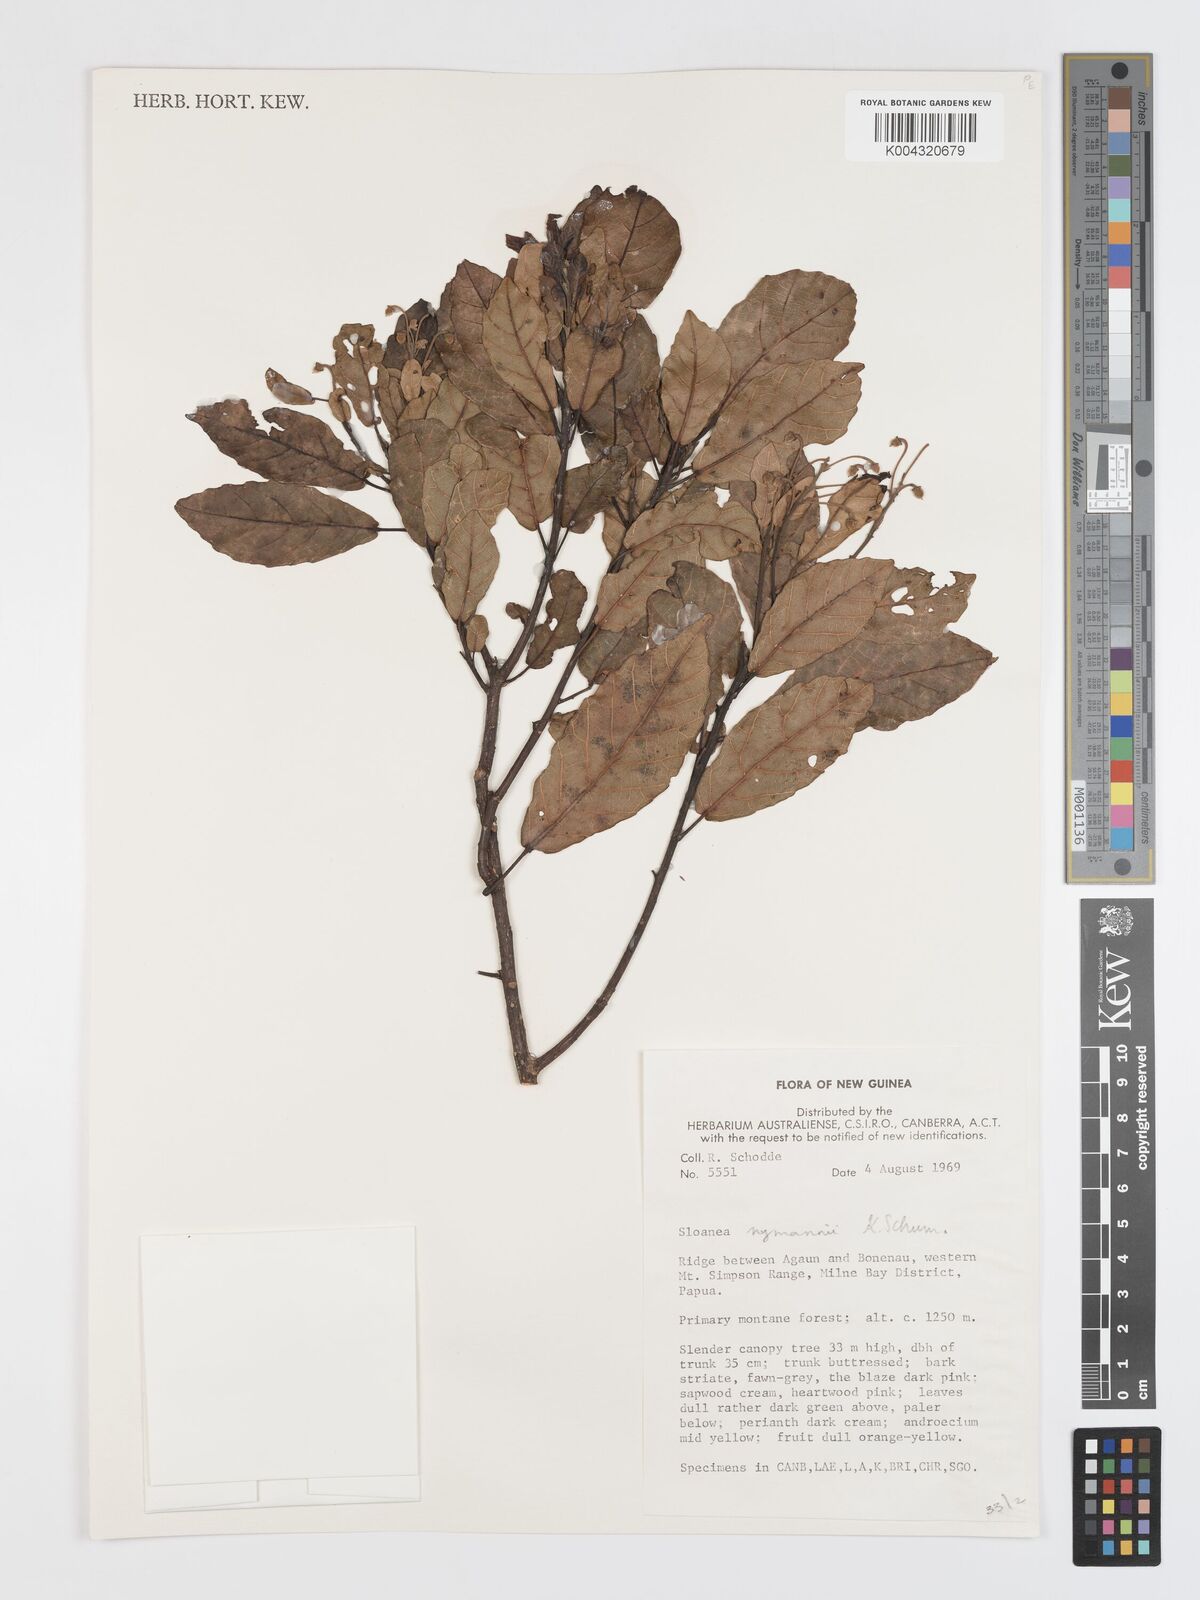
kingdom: Plantae
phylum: Tracheophyta
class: Magnoliopsida
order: Oxalidales
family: Elaeocarpaceae
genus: Sloanea
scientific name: Sloanea nymanii
